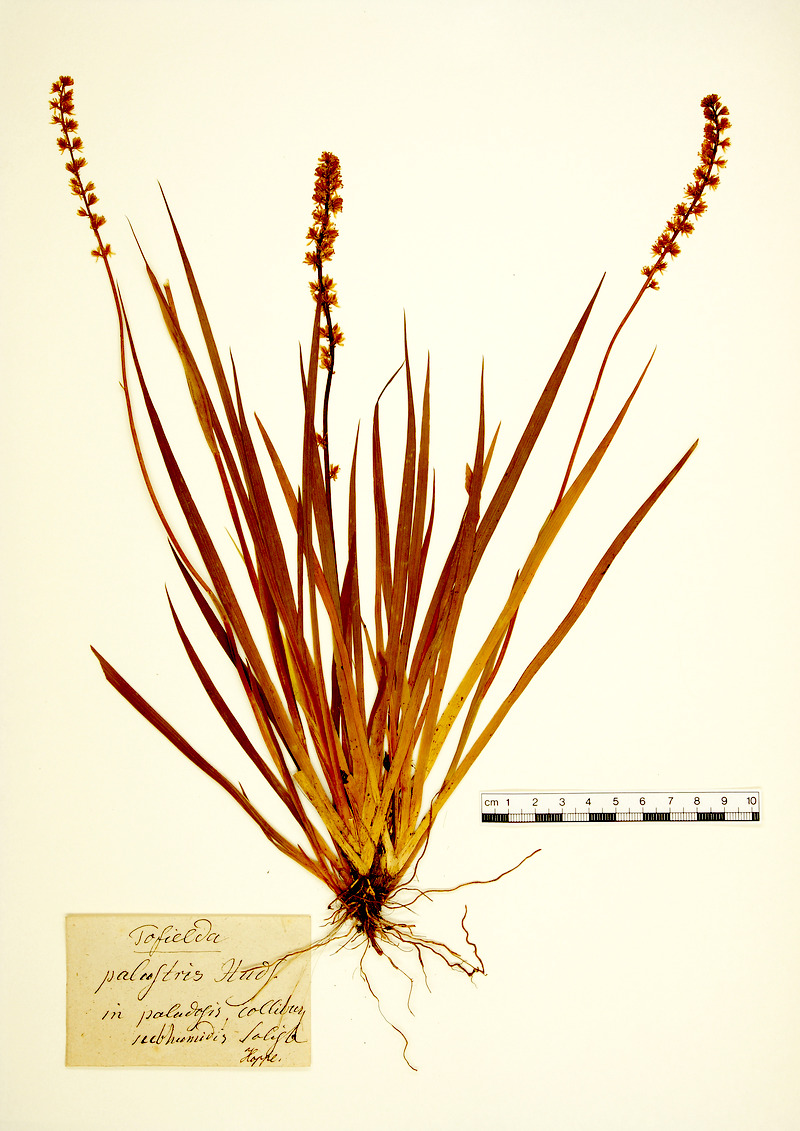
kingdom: Plantae
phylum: Tracheophyta
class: Liliopsida
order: Alismatales
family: Tofieldiaceae
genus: Tofieldia
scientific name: Tofieldia pusilla
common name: Scottish false asphodel
